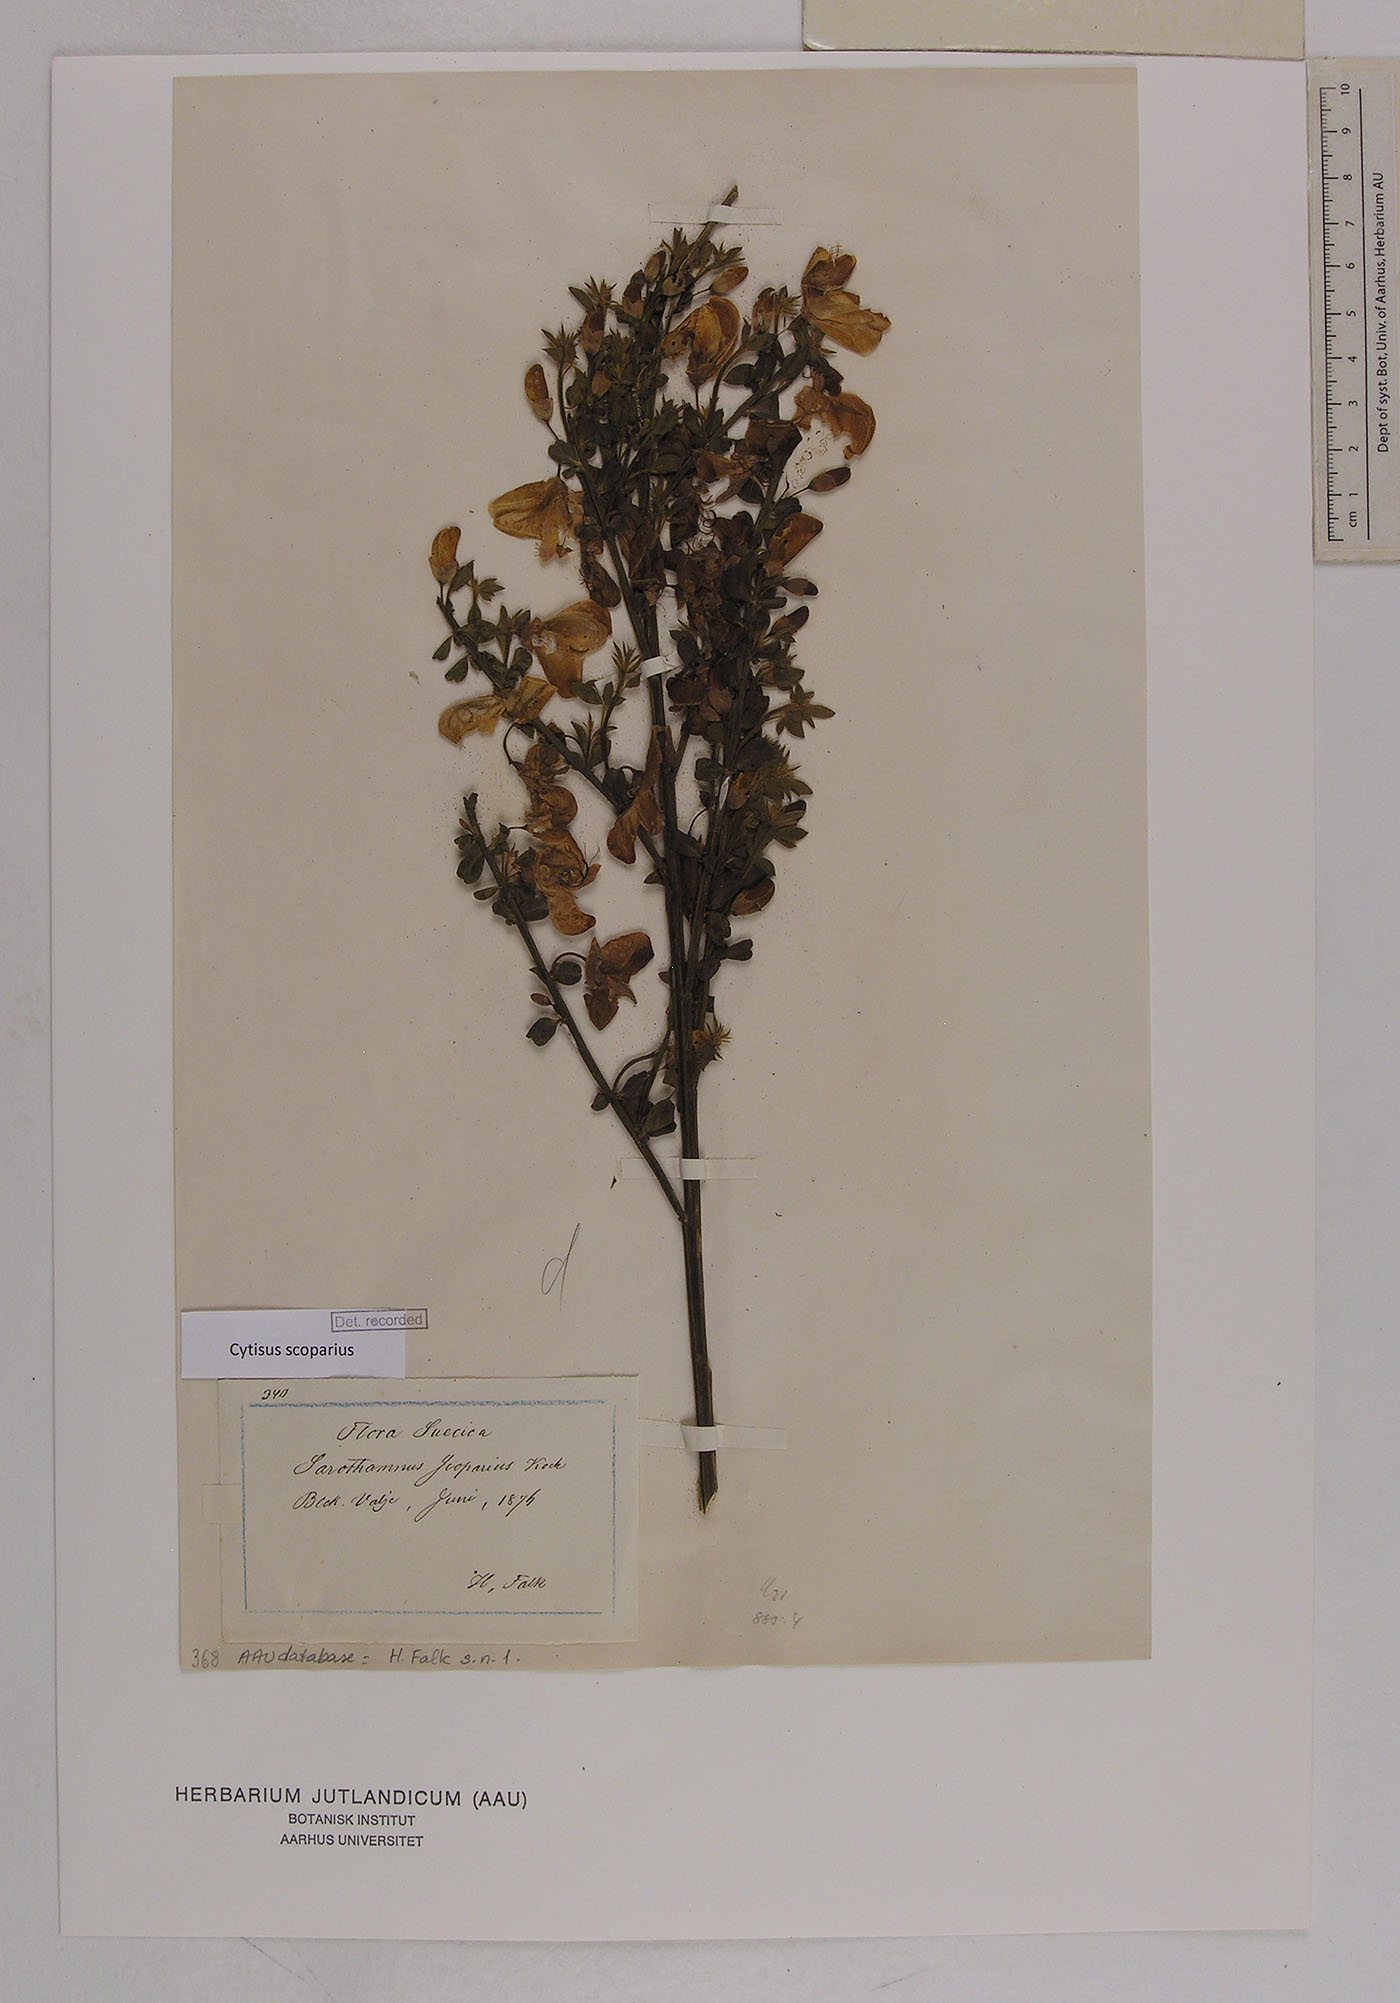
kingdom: Plantae
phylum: Tracheophyta
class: Magnoliopsida
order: Fabales
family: Fabaceae
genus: Cytisus
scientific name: Cytisus scoparius
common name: Scotch broom
